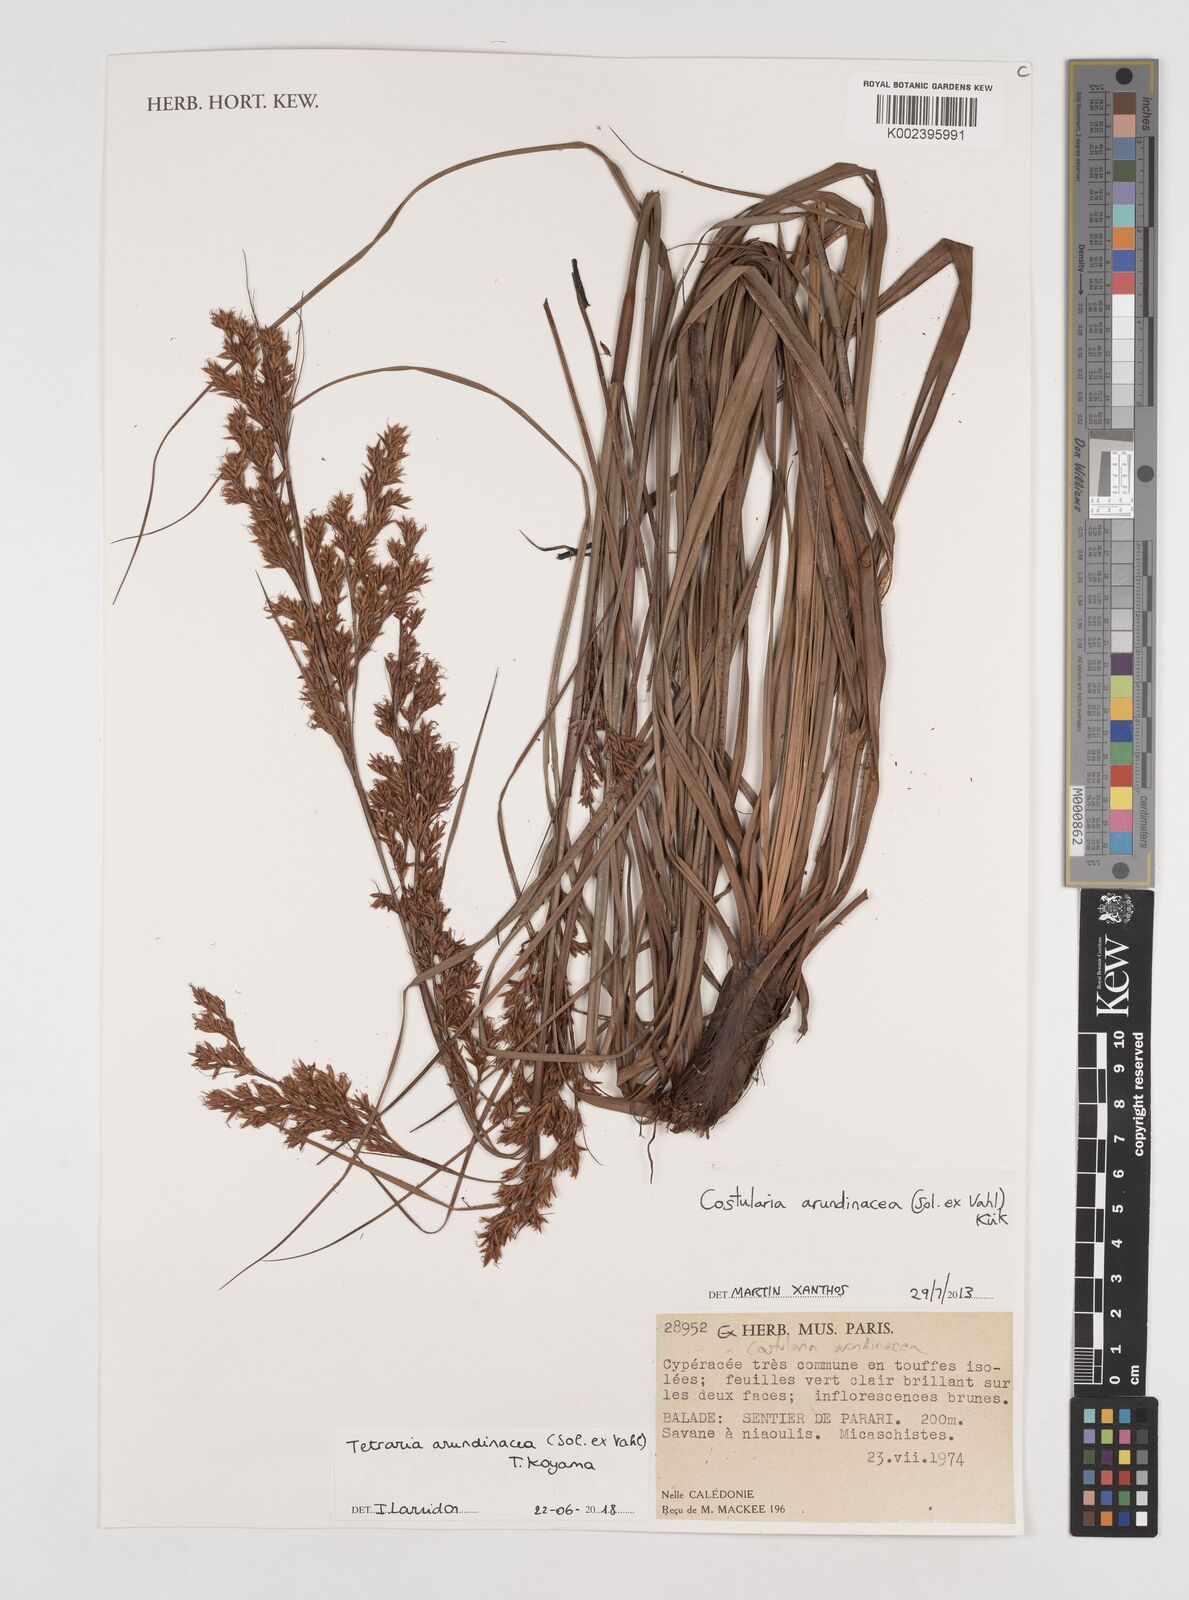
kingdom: Plantae
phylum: Tracheophyta
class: Liliopsida
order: Poales
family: Cyperaceae
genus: Tetraria
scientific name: Tetraria arundinacea
